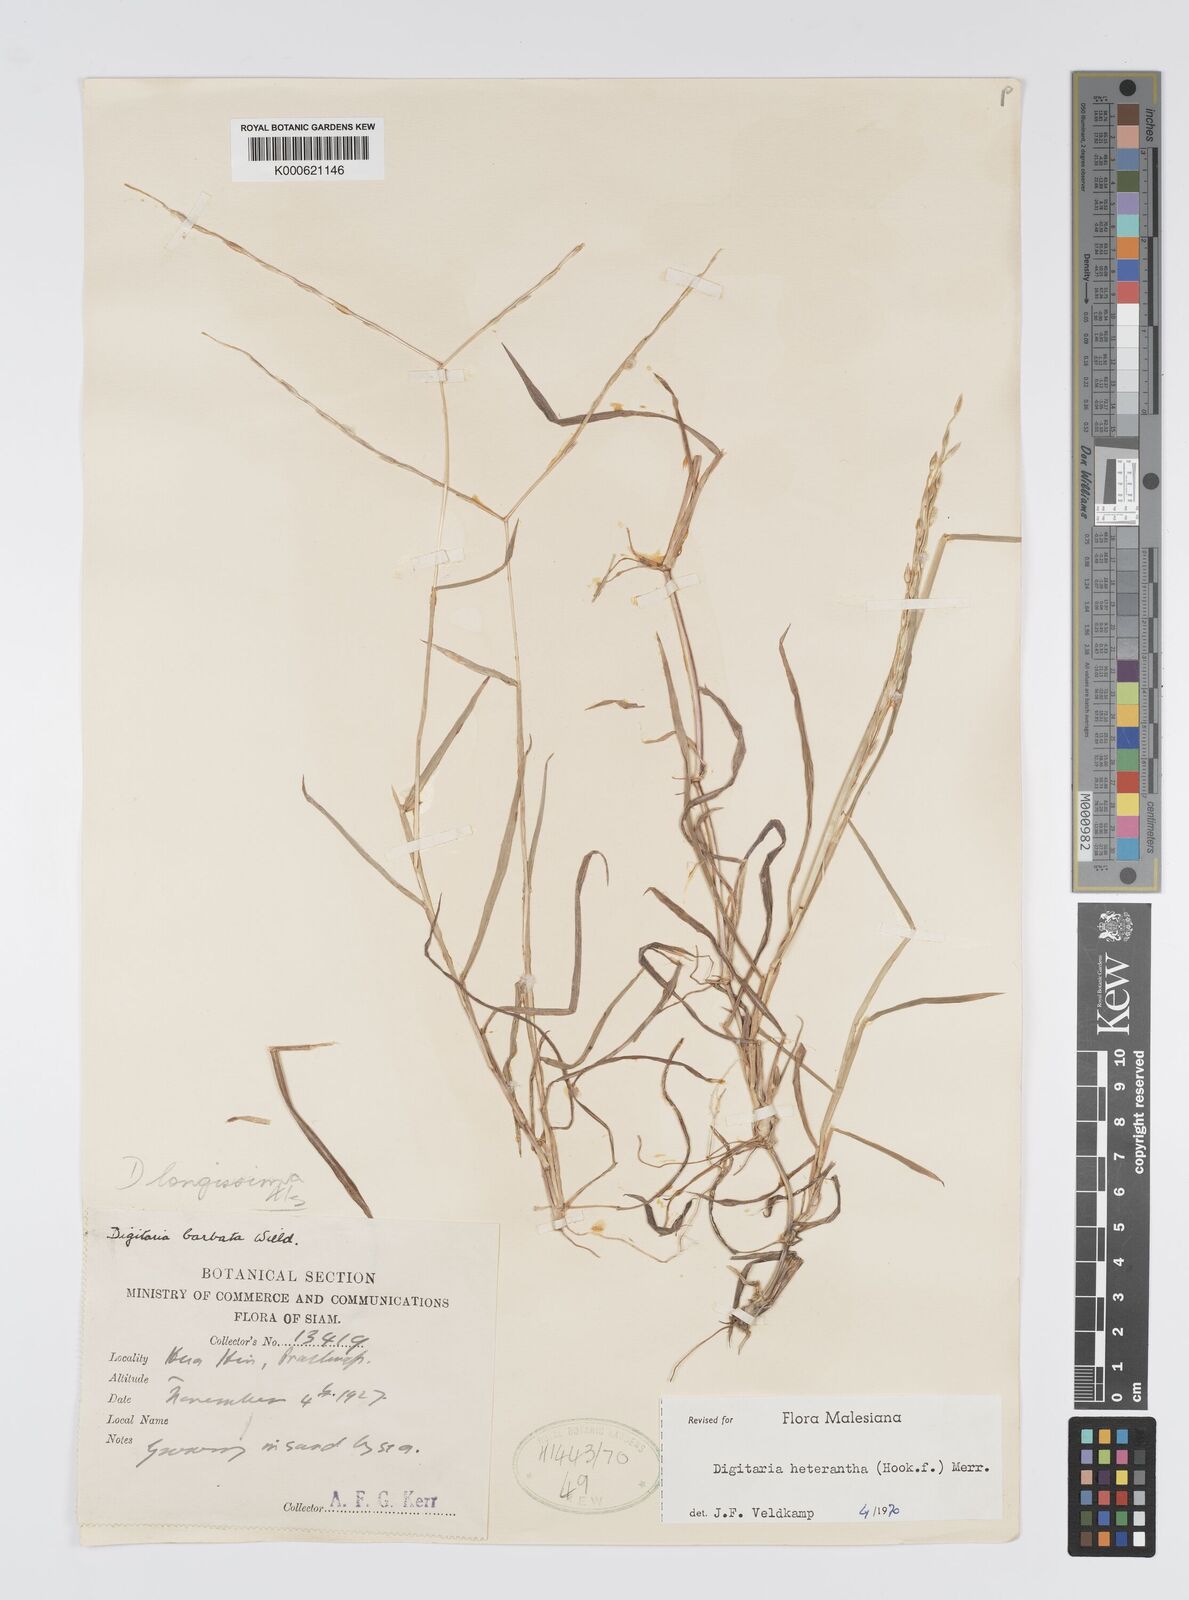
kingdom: Plantae
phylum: Tracheophyta
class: Liliopsida
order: Poales
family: Poaceae
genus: Digitaria
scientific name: Digitaria heterantha
